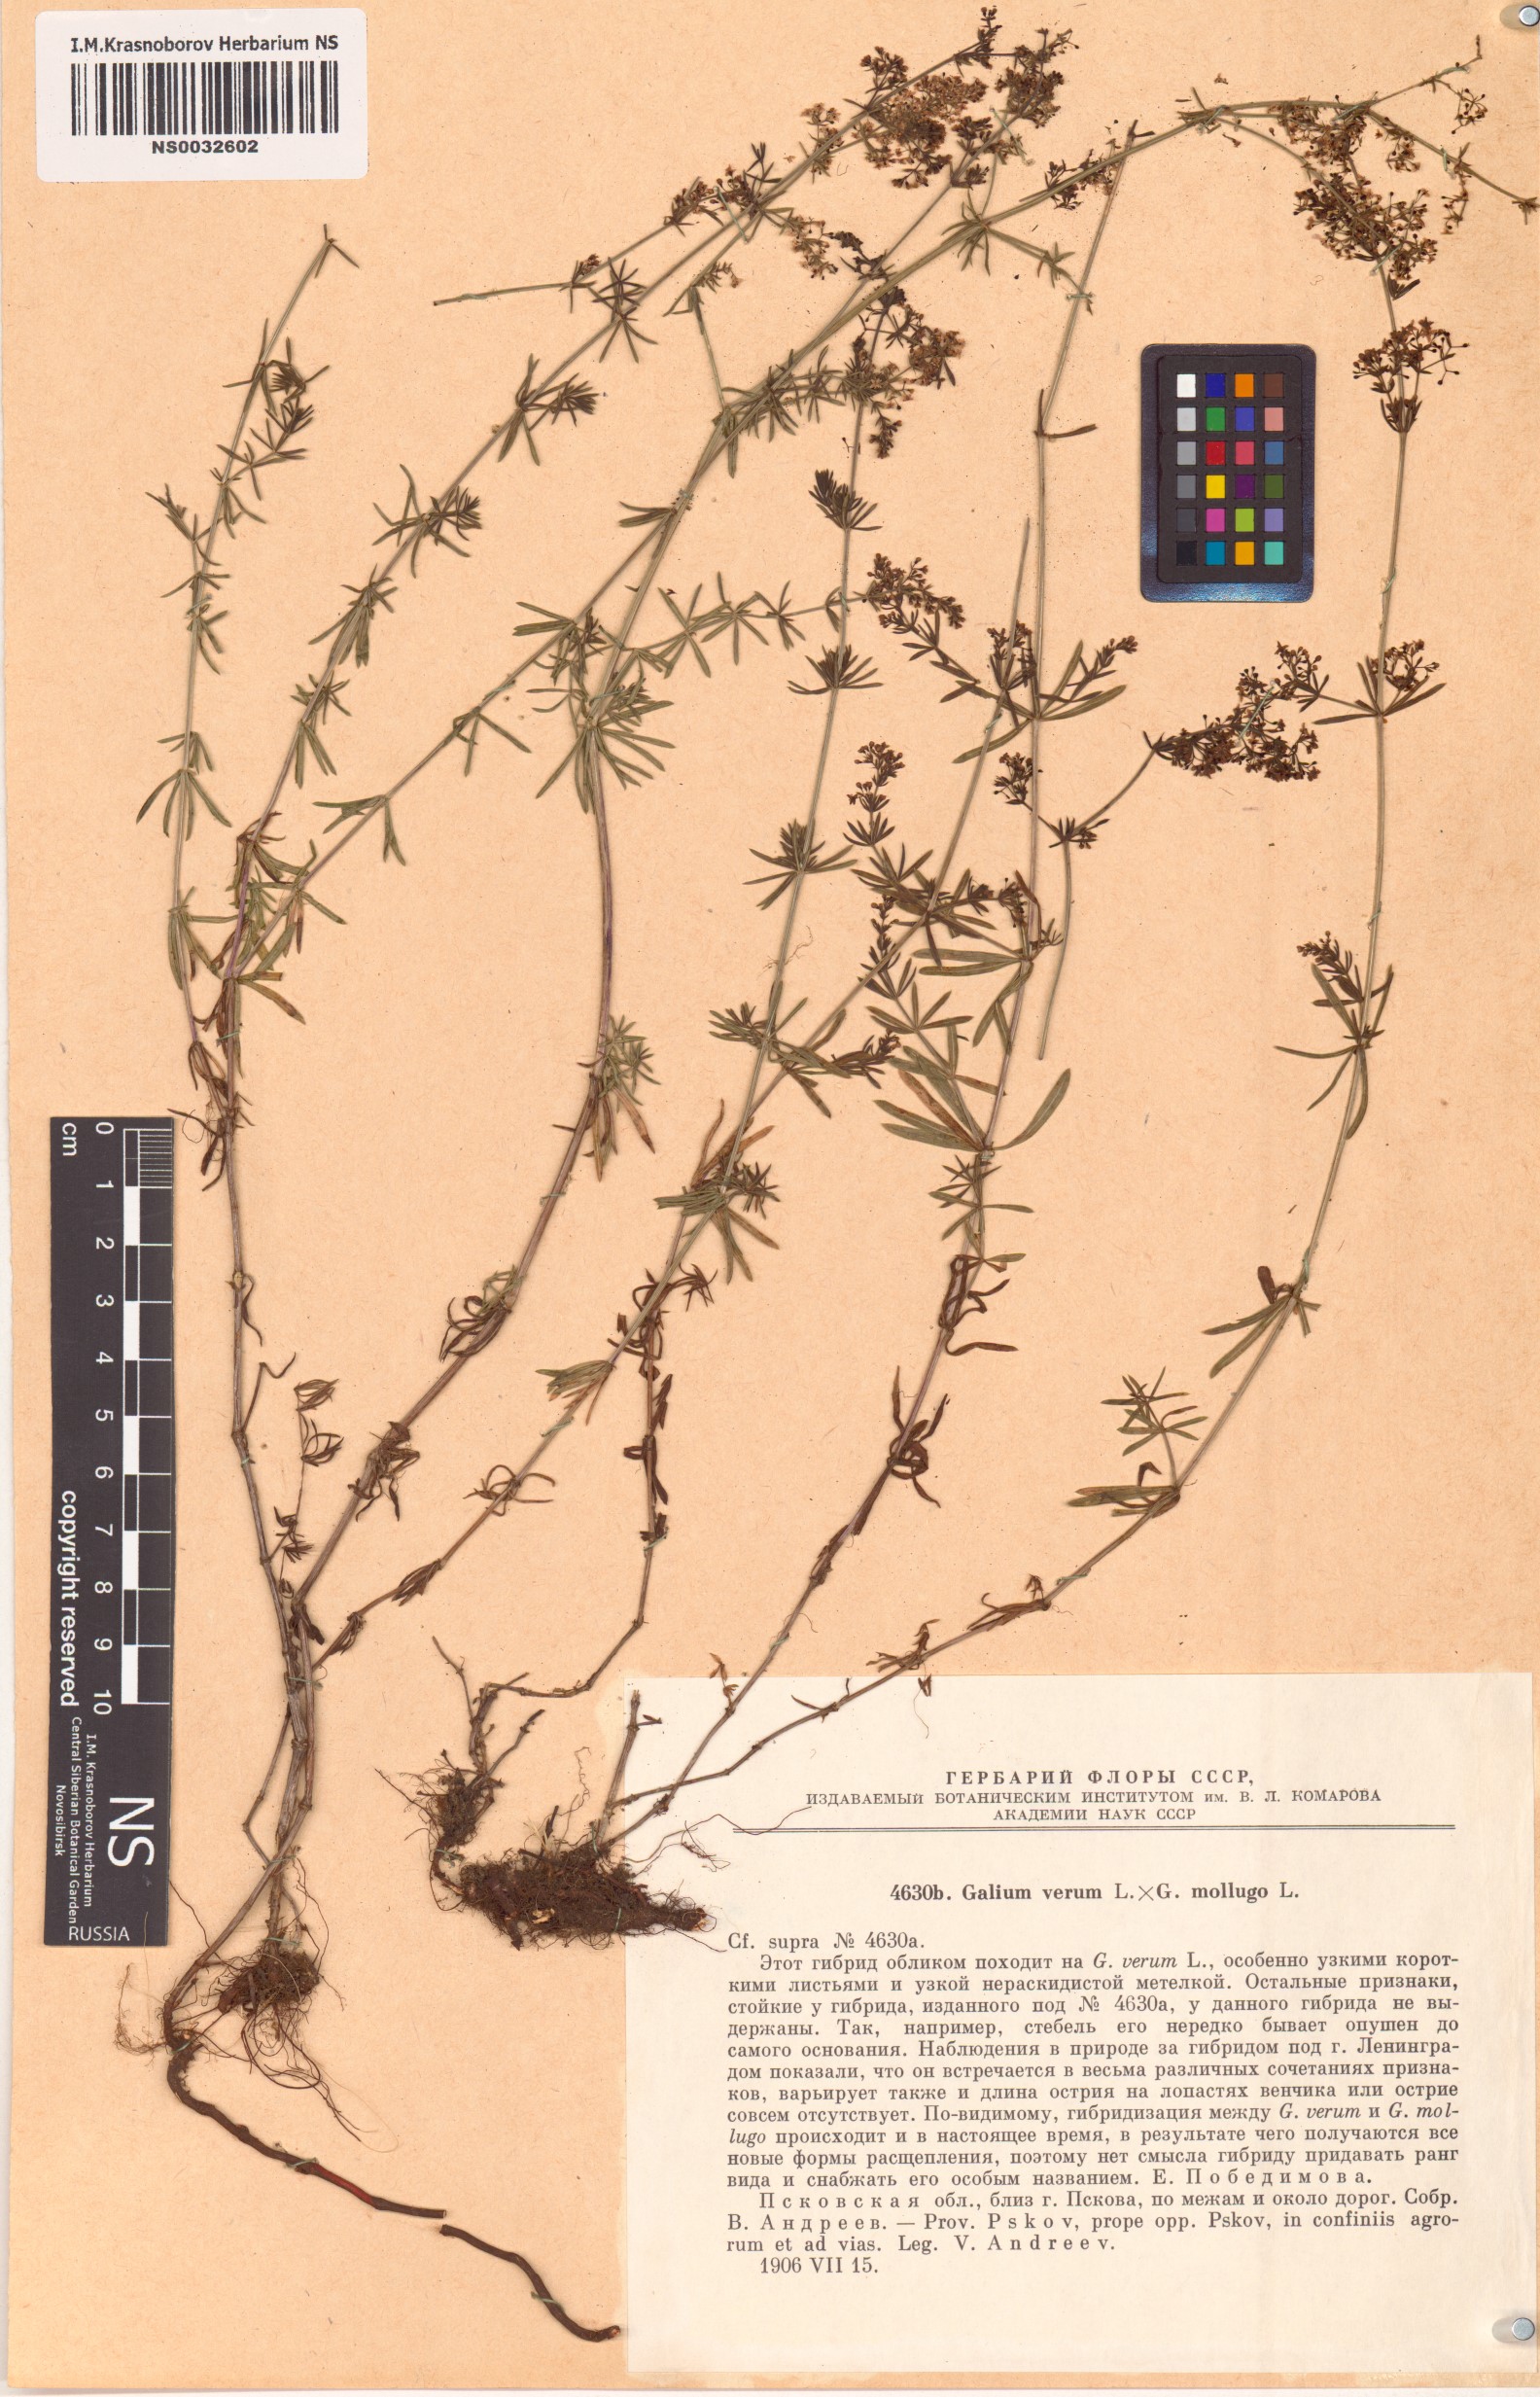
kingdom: Plantae
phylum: Tracheophyta
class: Magnoliopsida
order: Gentianales
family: Rubiaceae
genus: Galium
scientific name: Galium
